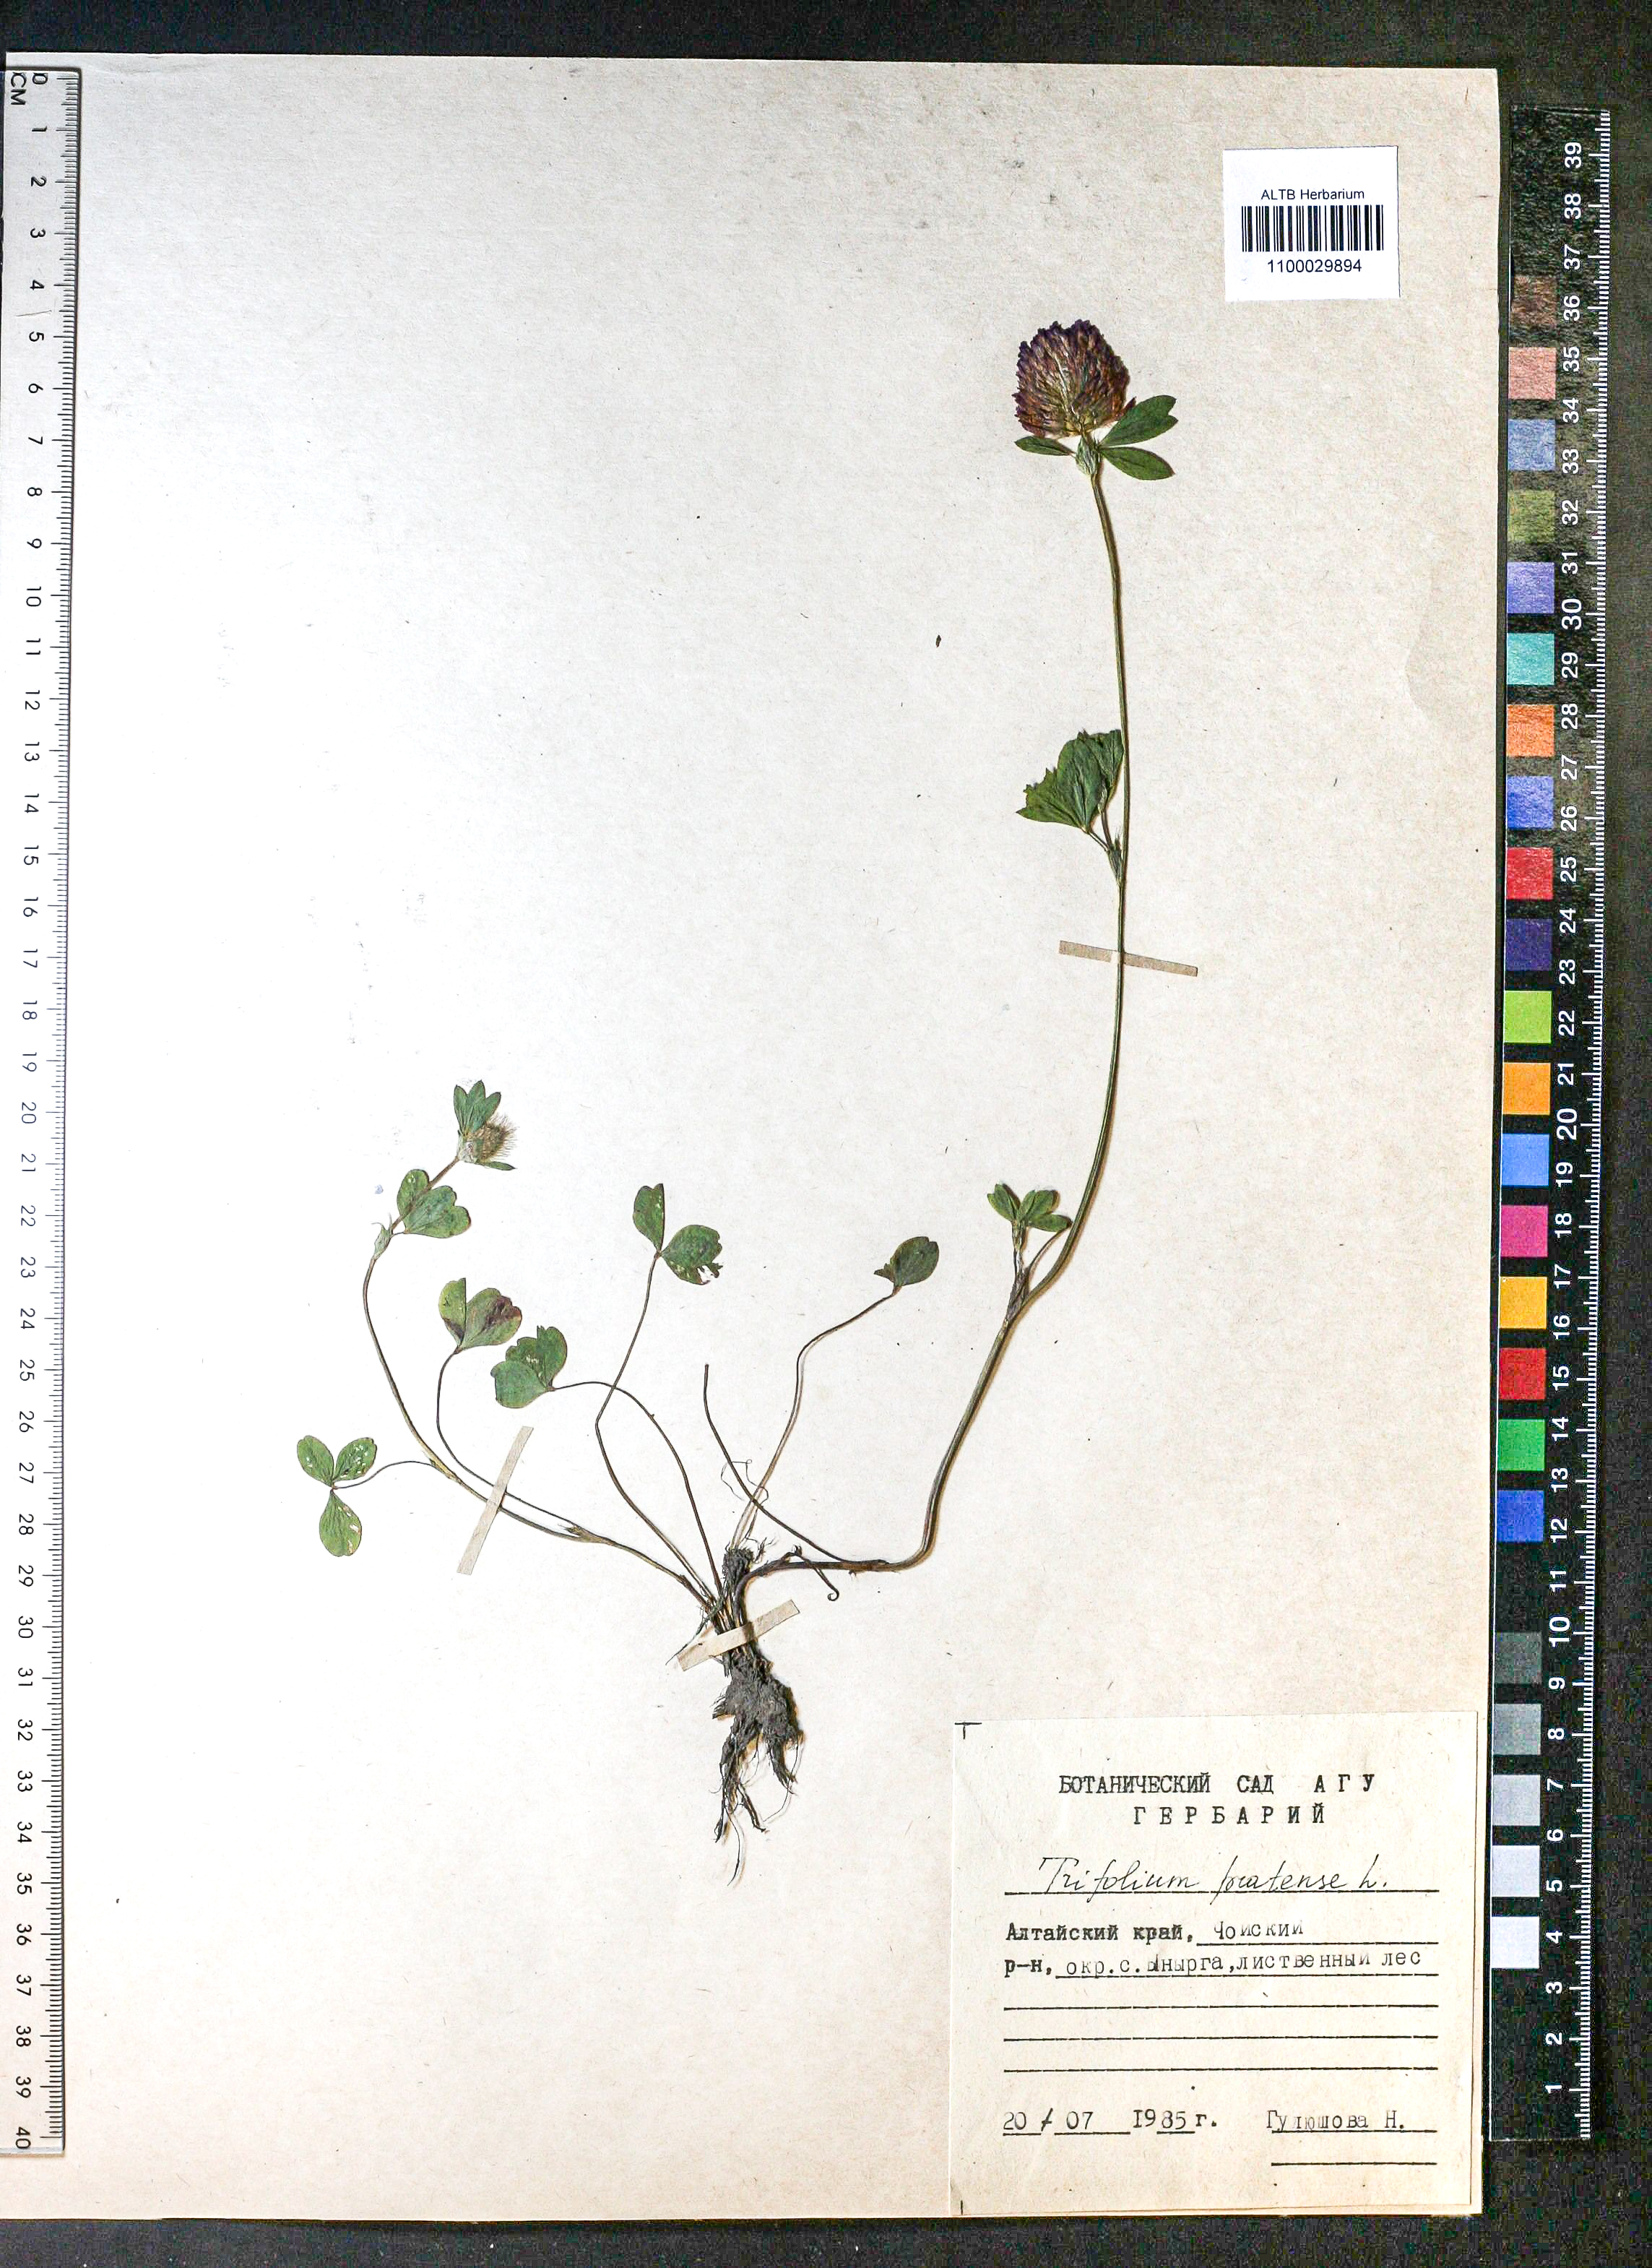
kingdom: Plantae
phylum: Tracheophyta
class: Magnoliopsida
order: Fabales
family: Fabaceae
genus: Trifolium
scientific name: Trifolium pratense
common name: Red clover
